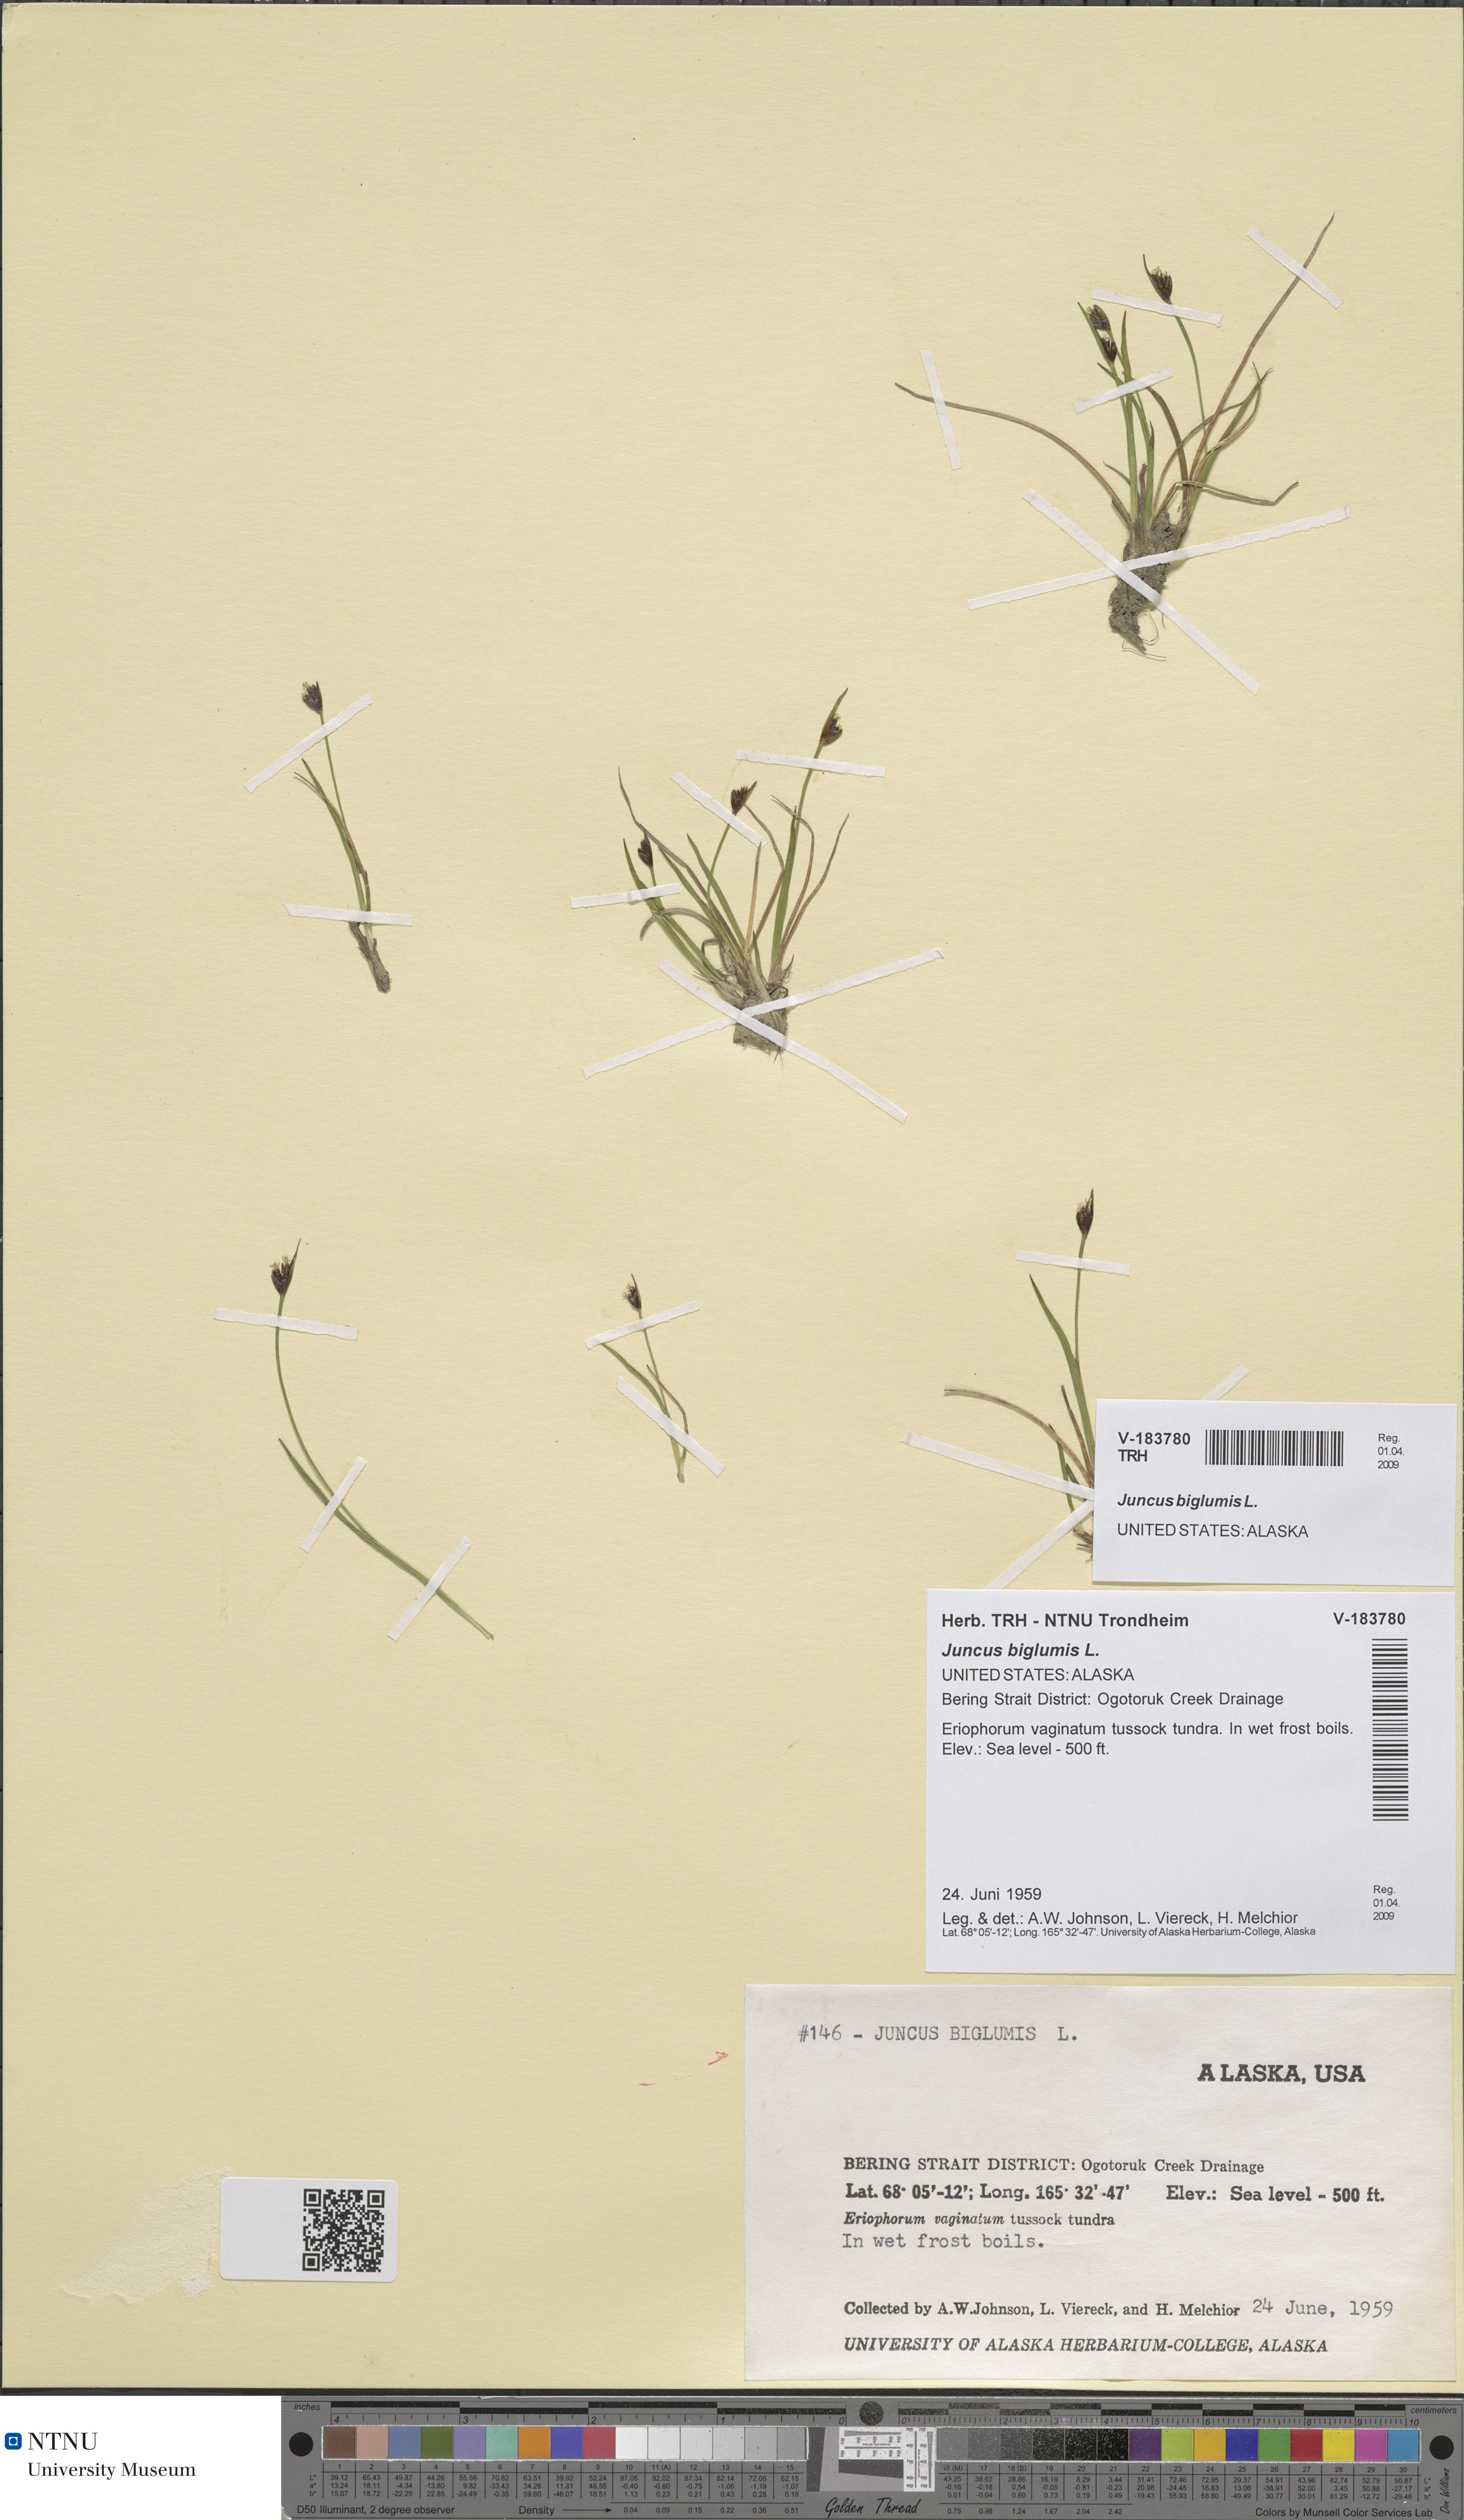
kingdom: Plantae
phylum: Tracheophyta
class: Liliopsida
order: Poales
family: Juncaceae
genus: Juncus
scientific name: Juncus biglumis
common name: Two-flowered rush
